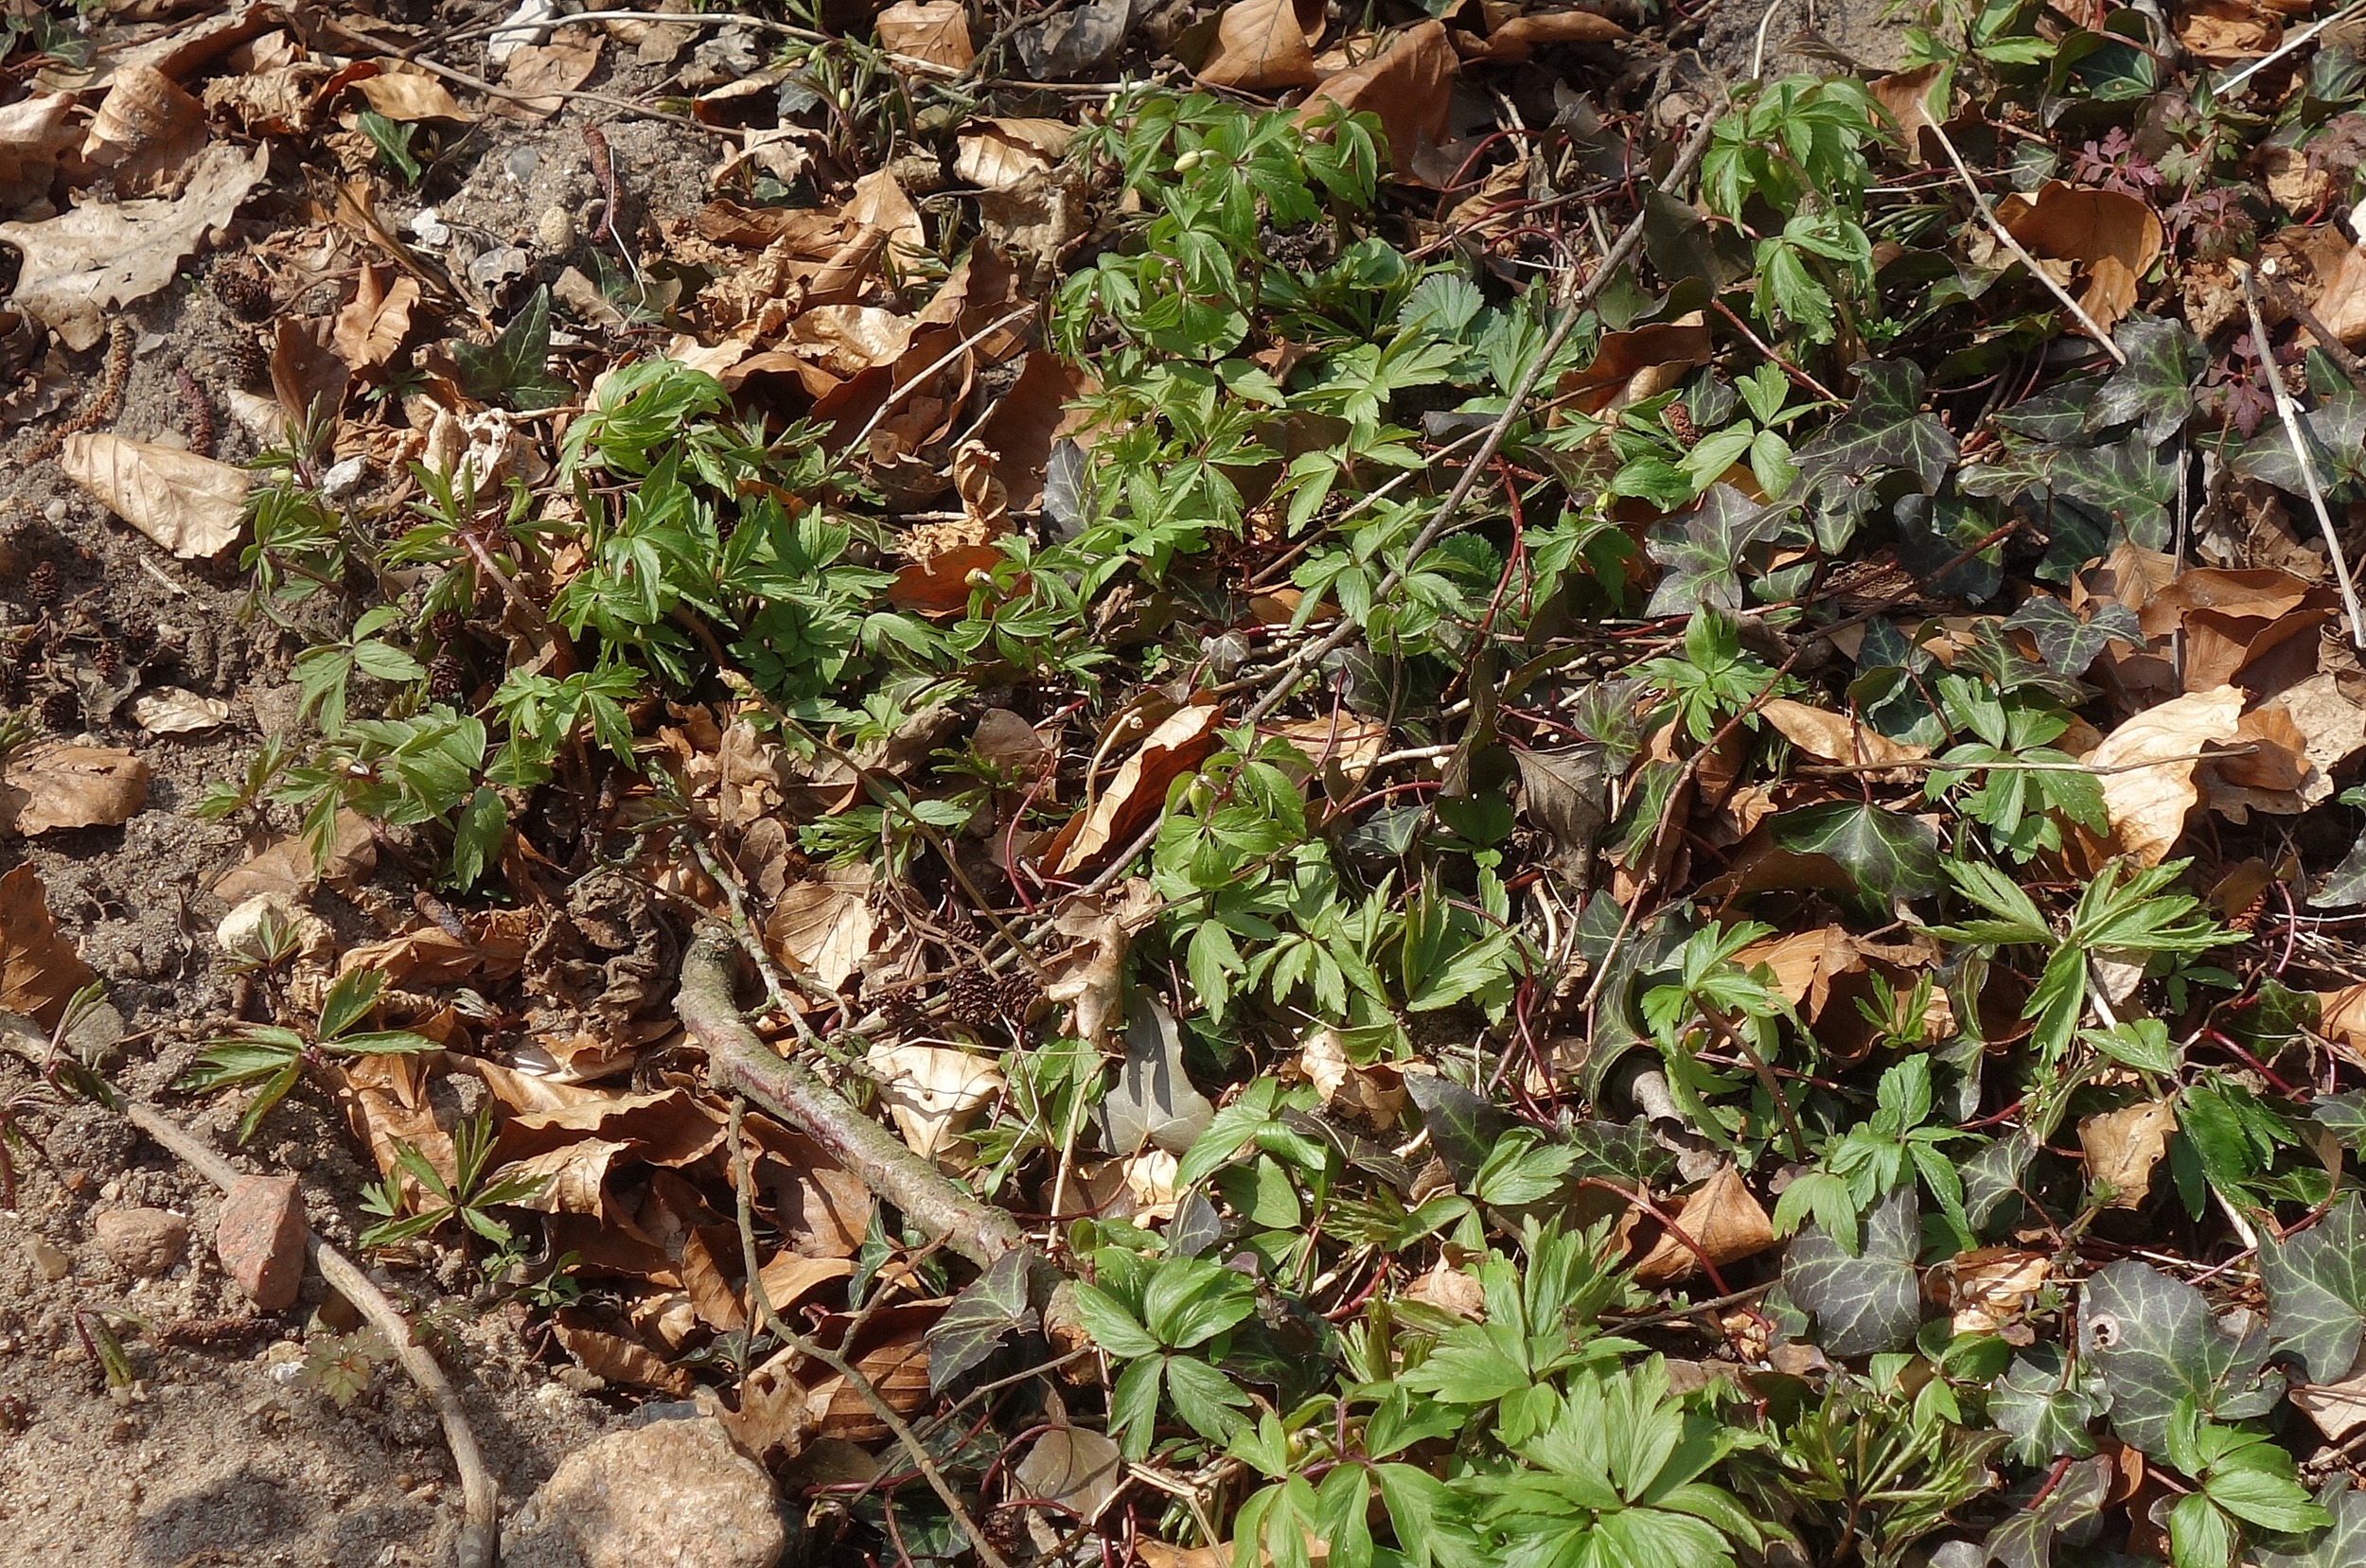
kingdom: Plantae
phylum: Tracheophyta
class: Magnoliopsida
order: Ranunculales
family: Ranunculaceae
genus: Anemone
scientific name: Anemone nemorosa
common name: Hvid anemone
